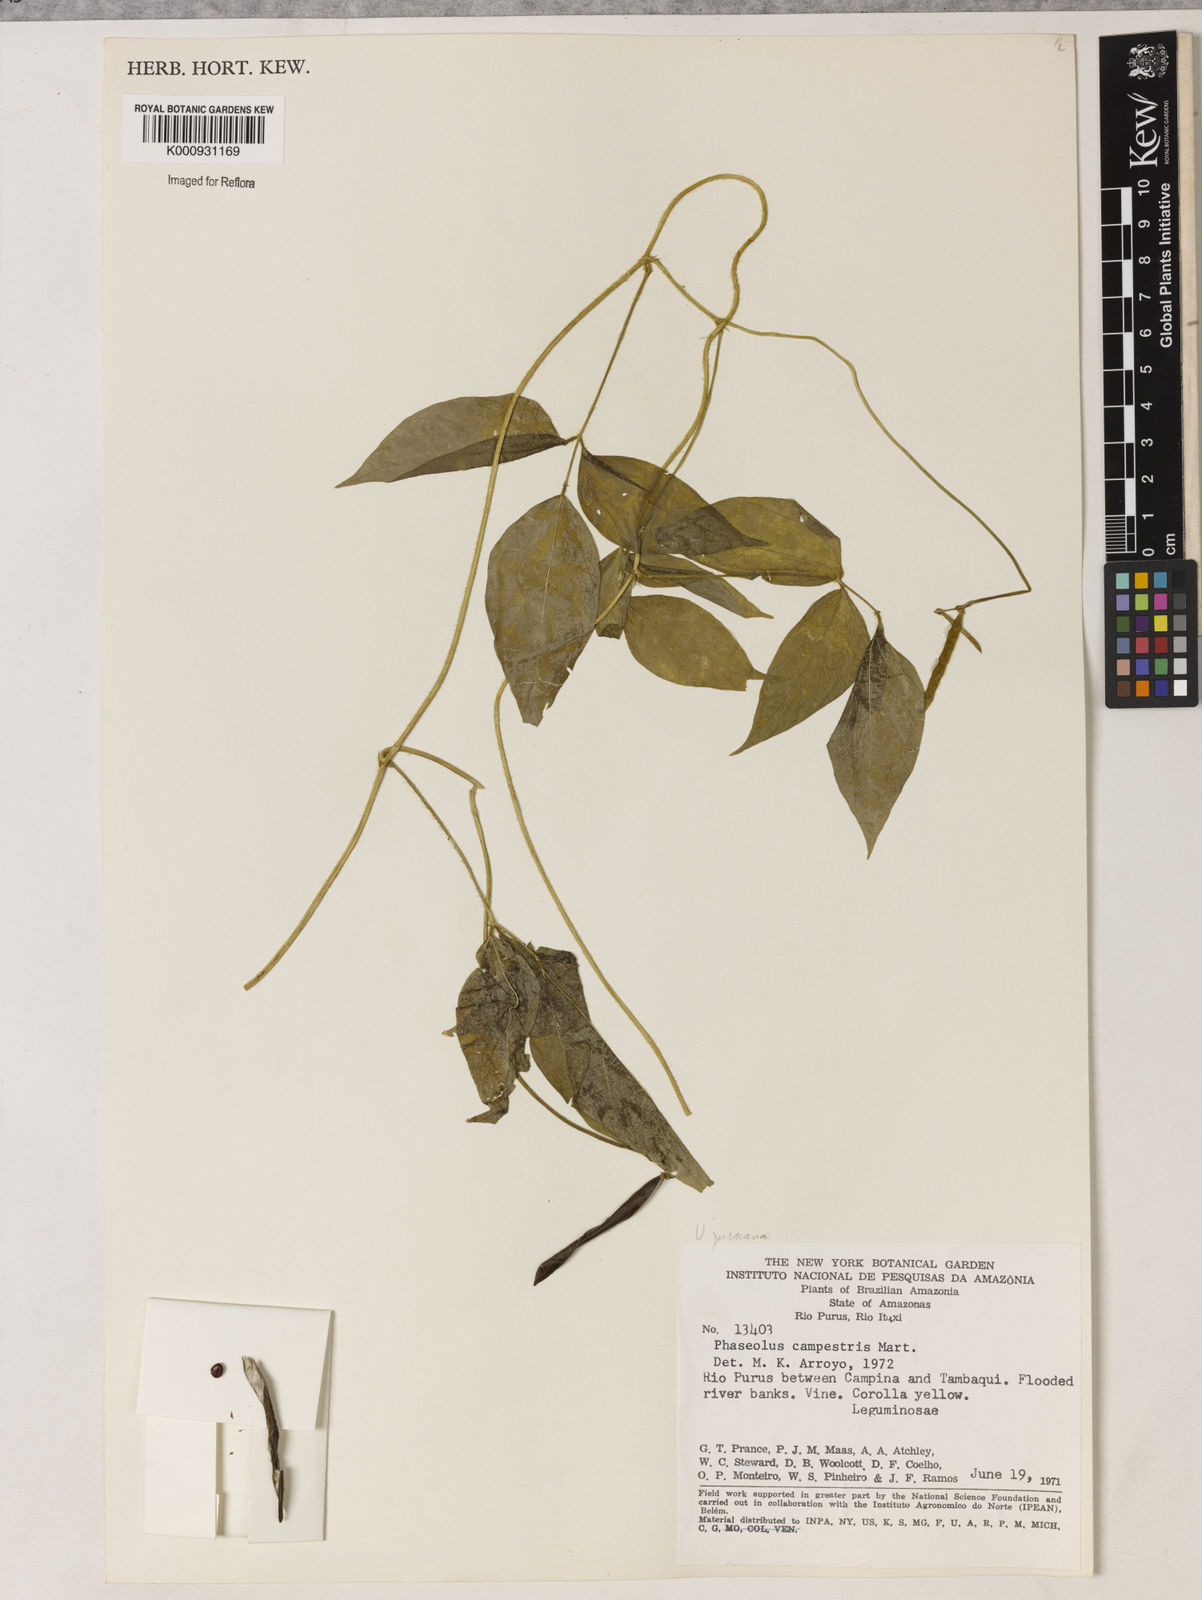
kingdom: Plantae
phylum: Tracheophyta
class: Magnoliopsida
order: Fabales
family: Fabaceae
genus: Vigna
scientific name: Vigna juruana
